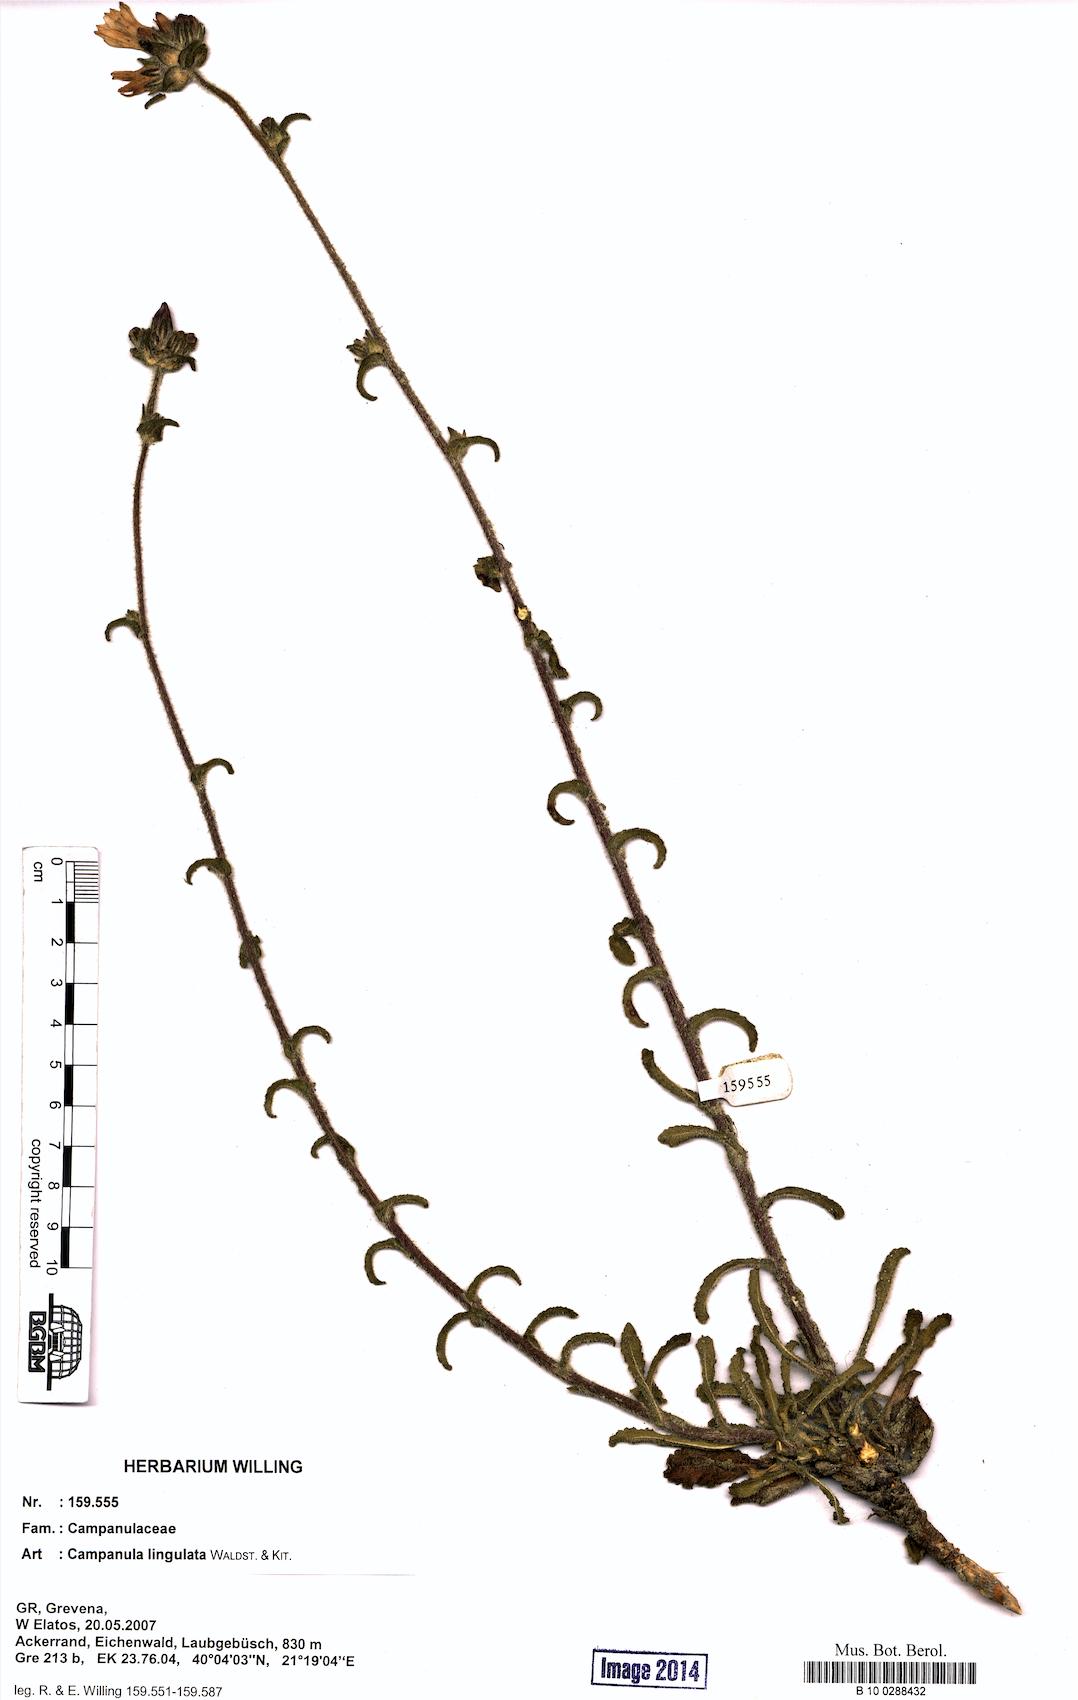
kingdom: Plantae
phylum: Tracheophyta
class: Magnoliopsida
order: Asterales
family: Campanulaceae
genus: Campanula
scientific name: Campanula lingulata
